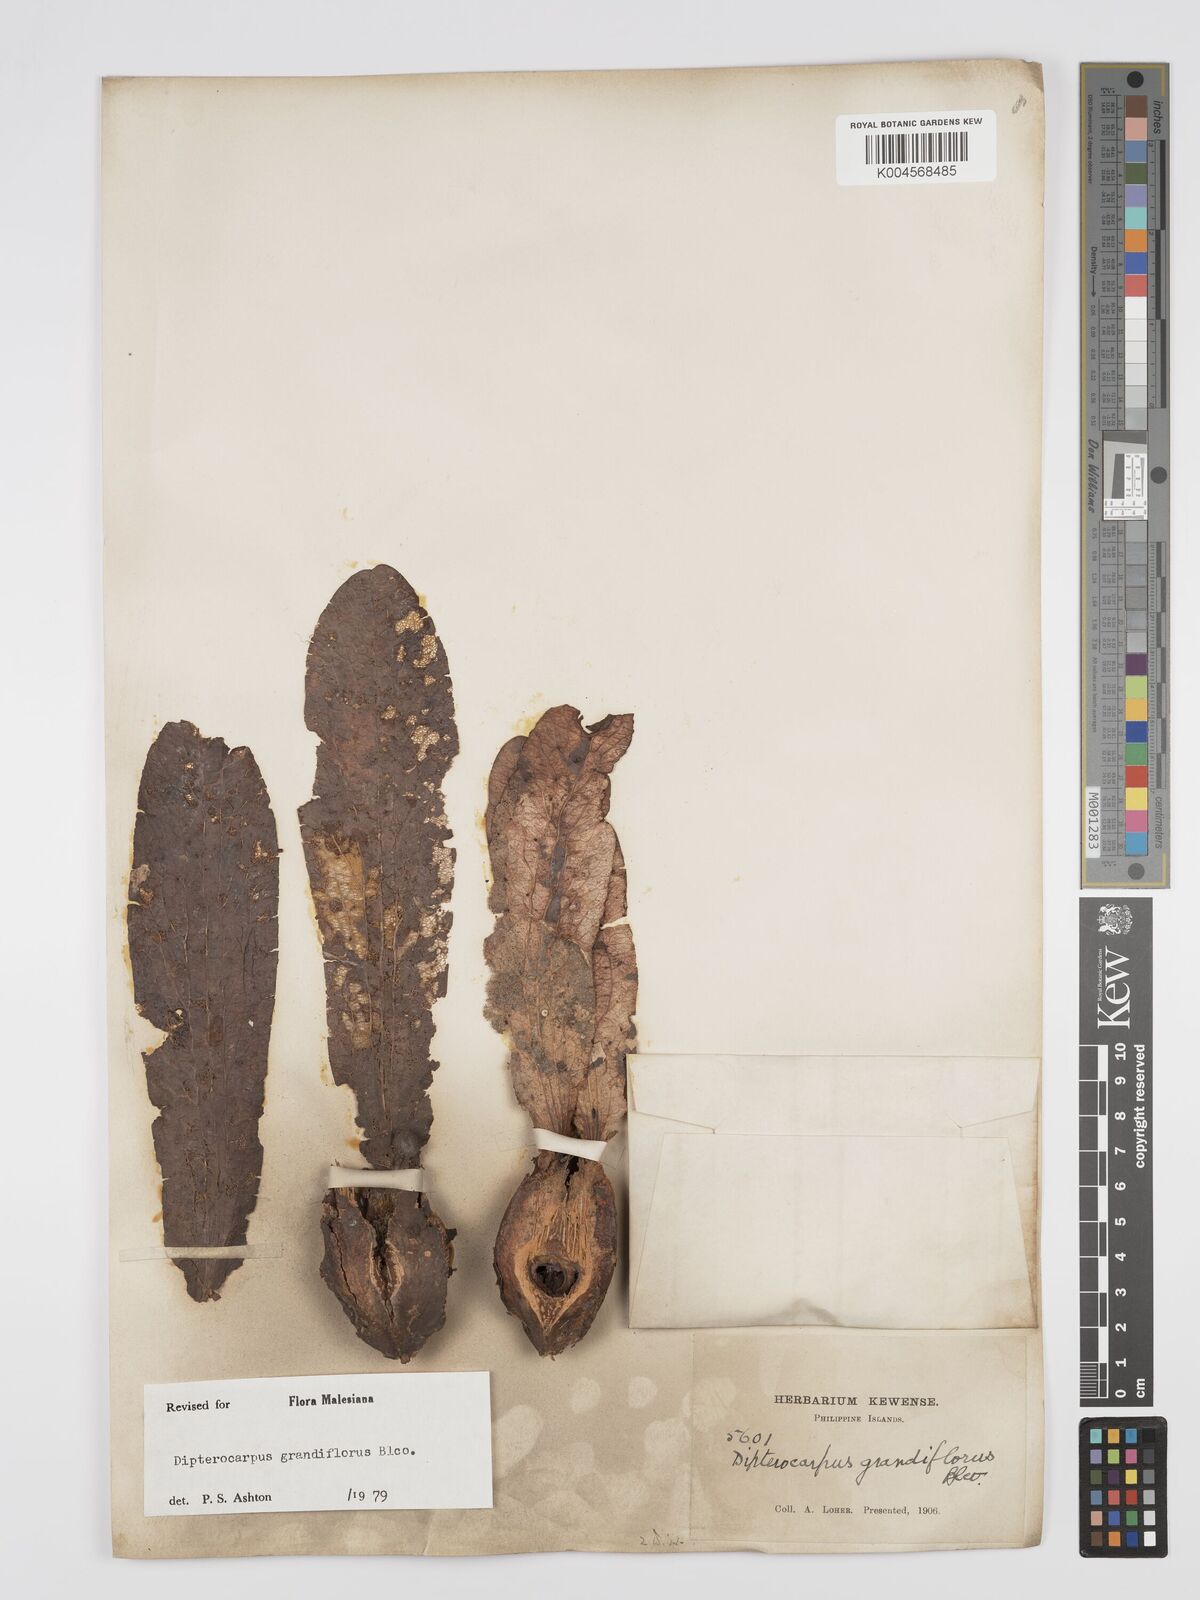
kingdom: Plantae
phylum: Tracheophyta
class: Magnoliopsida
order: Malvales
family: Dipterocarpaceae
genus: Dipterocarpus
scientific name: Dipterocarpus grandiflorus
